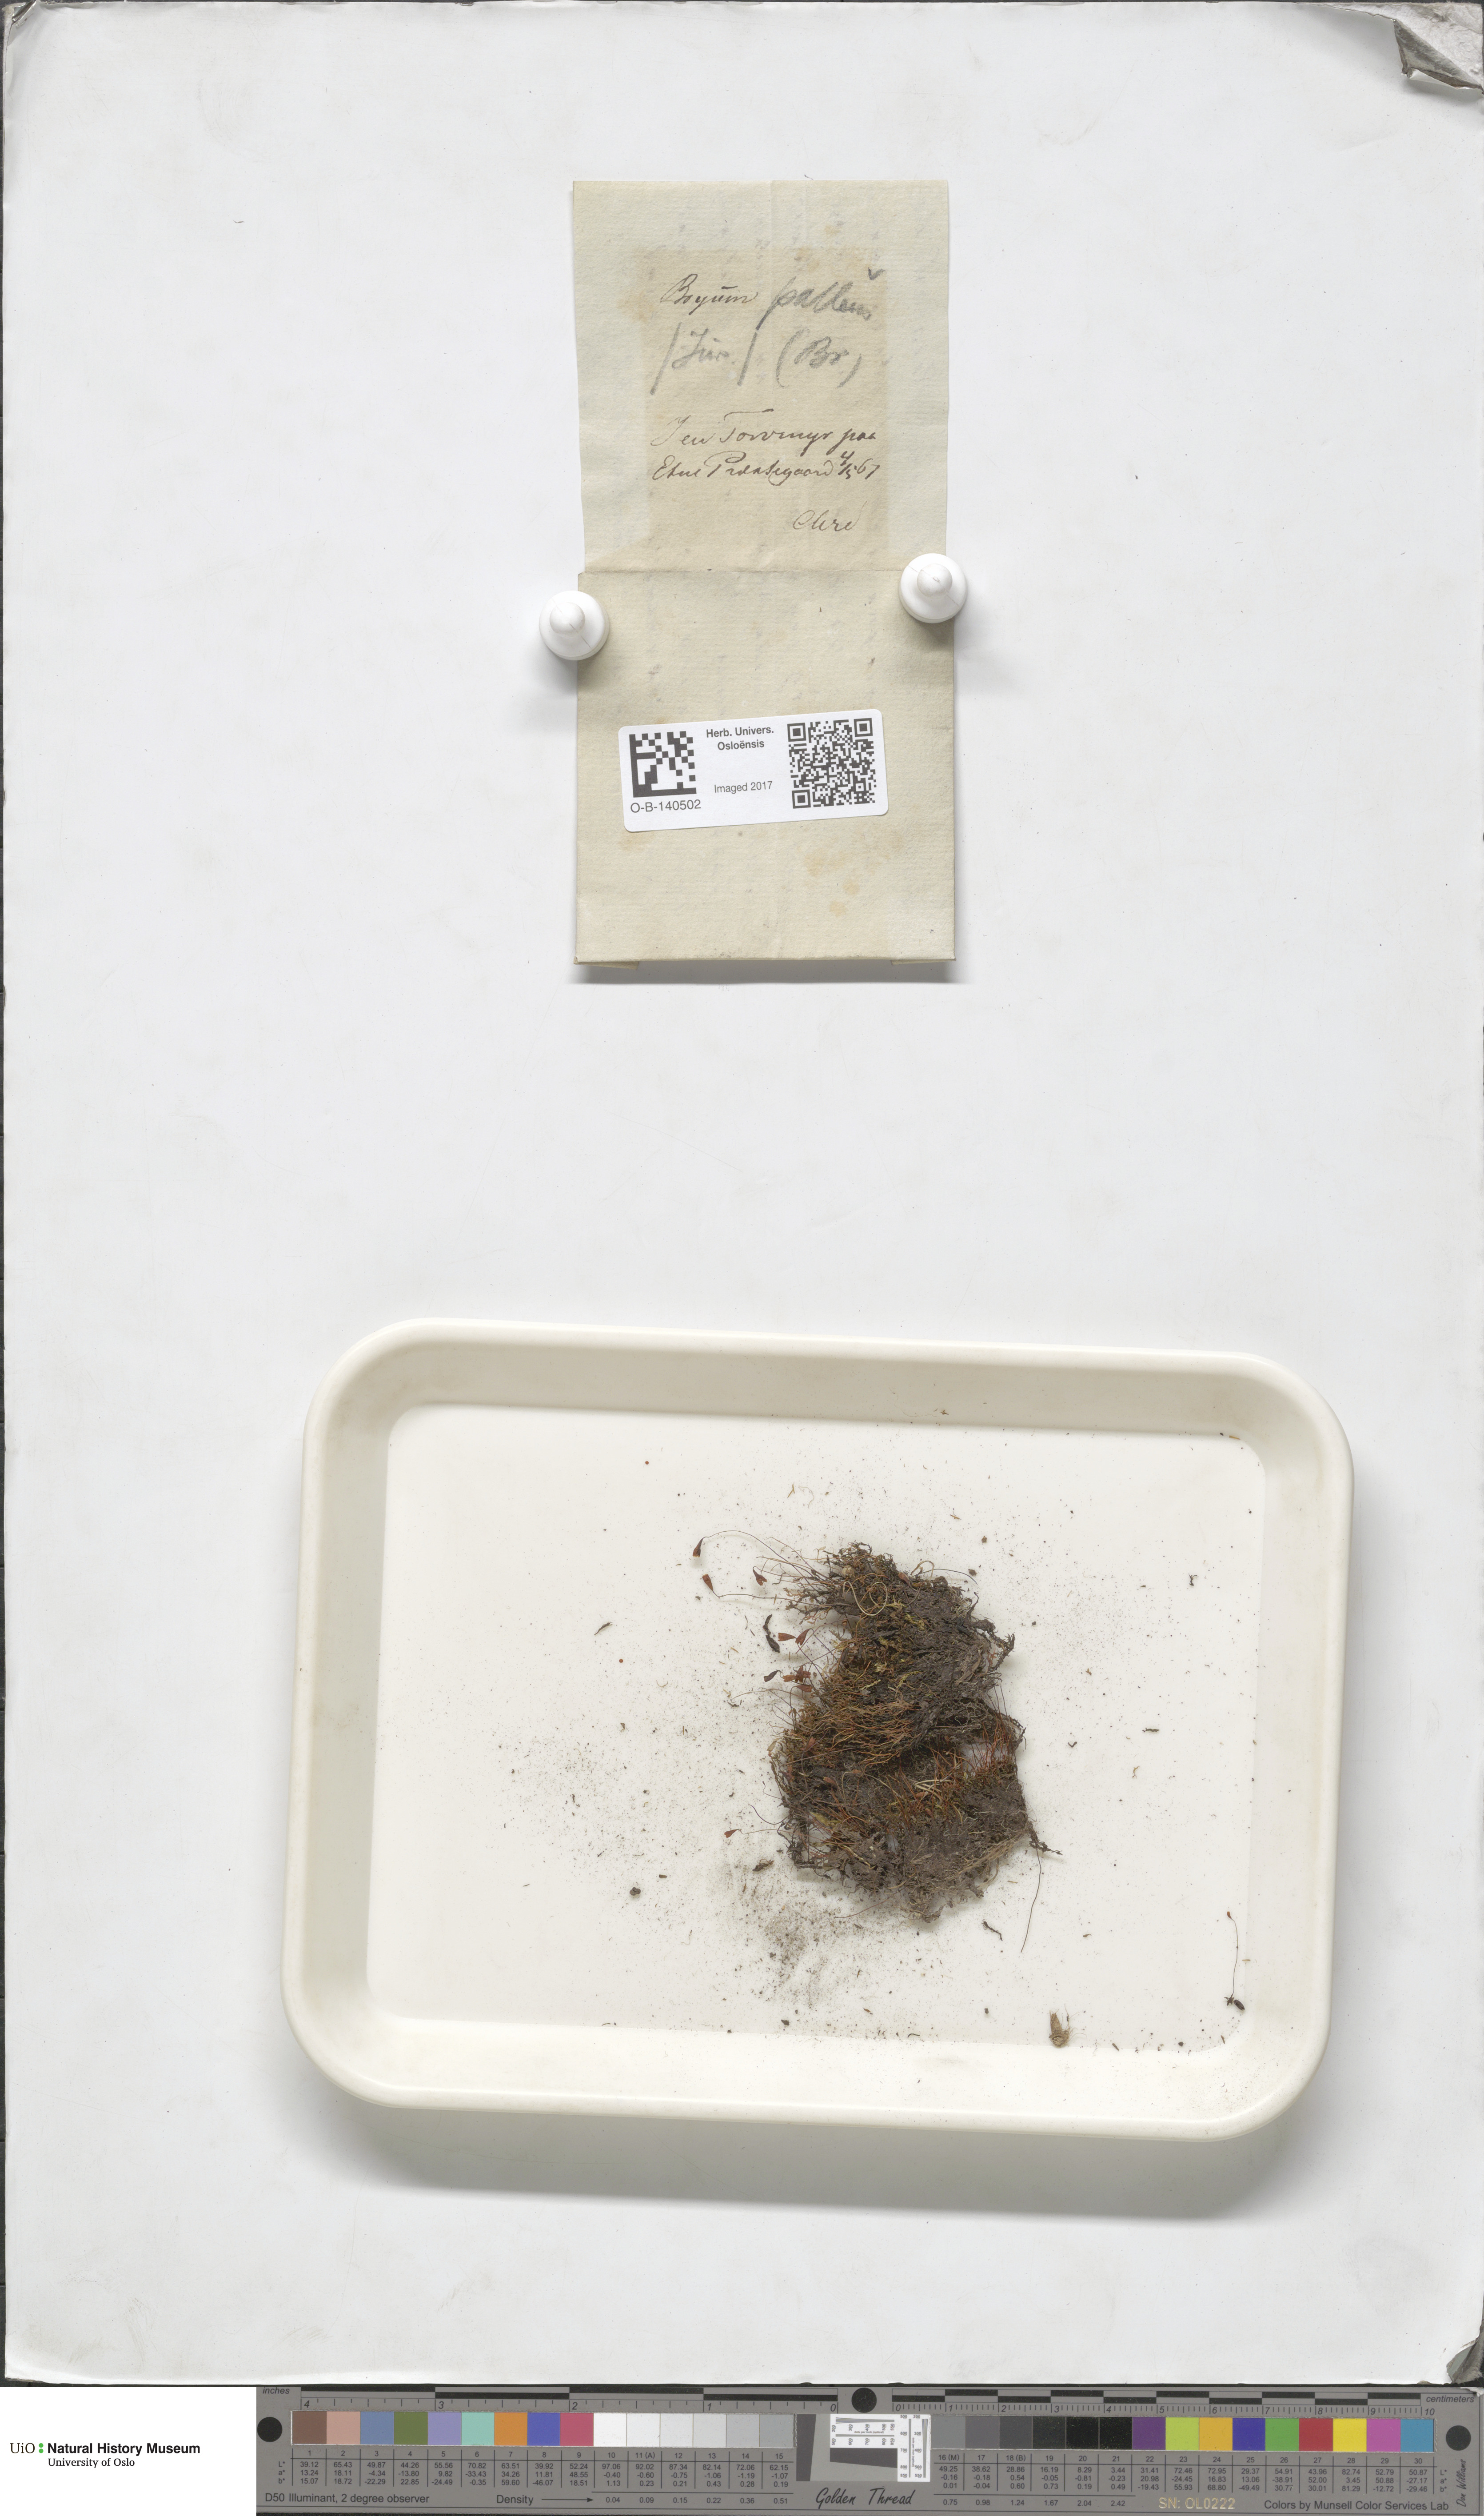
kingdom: Plantae
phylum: Bryophyta
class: Bryopsida
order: Bryales
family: Bryaceae
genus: Ptychostomum
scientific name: Ptychostomum pallens
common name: Pale thread-moss
